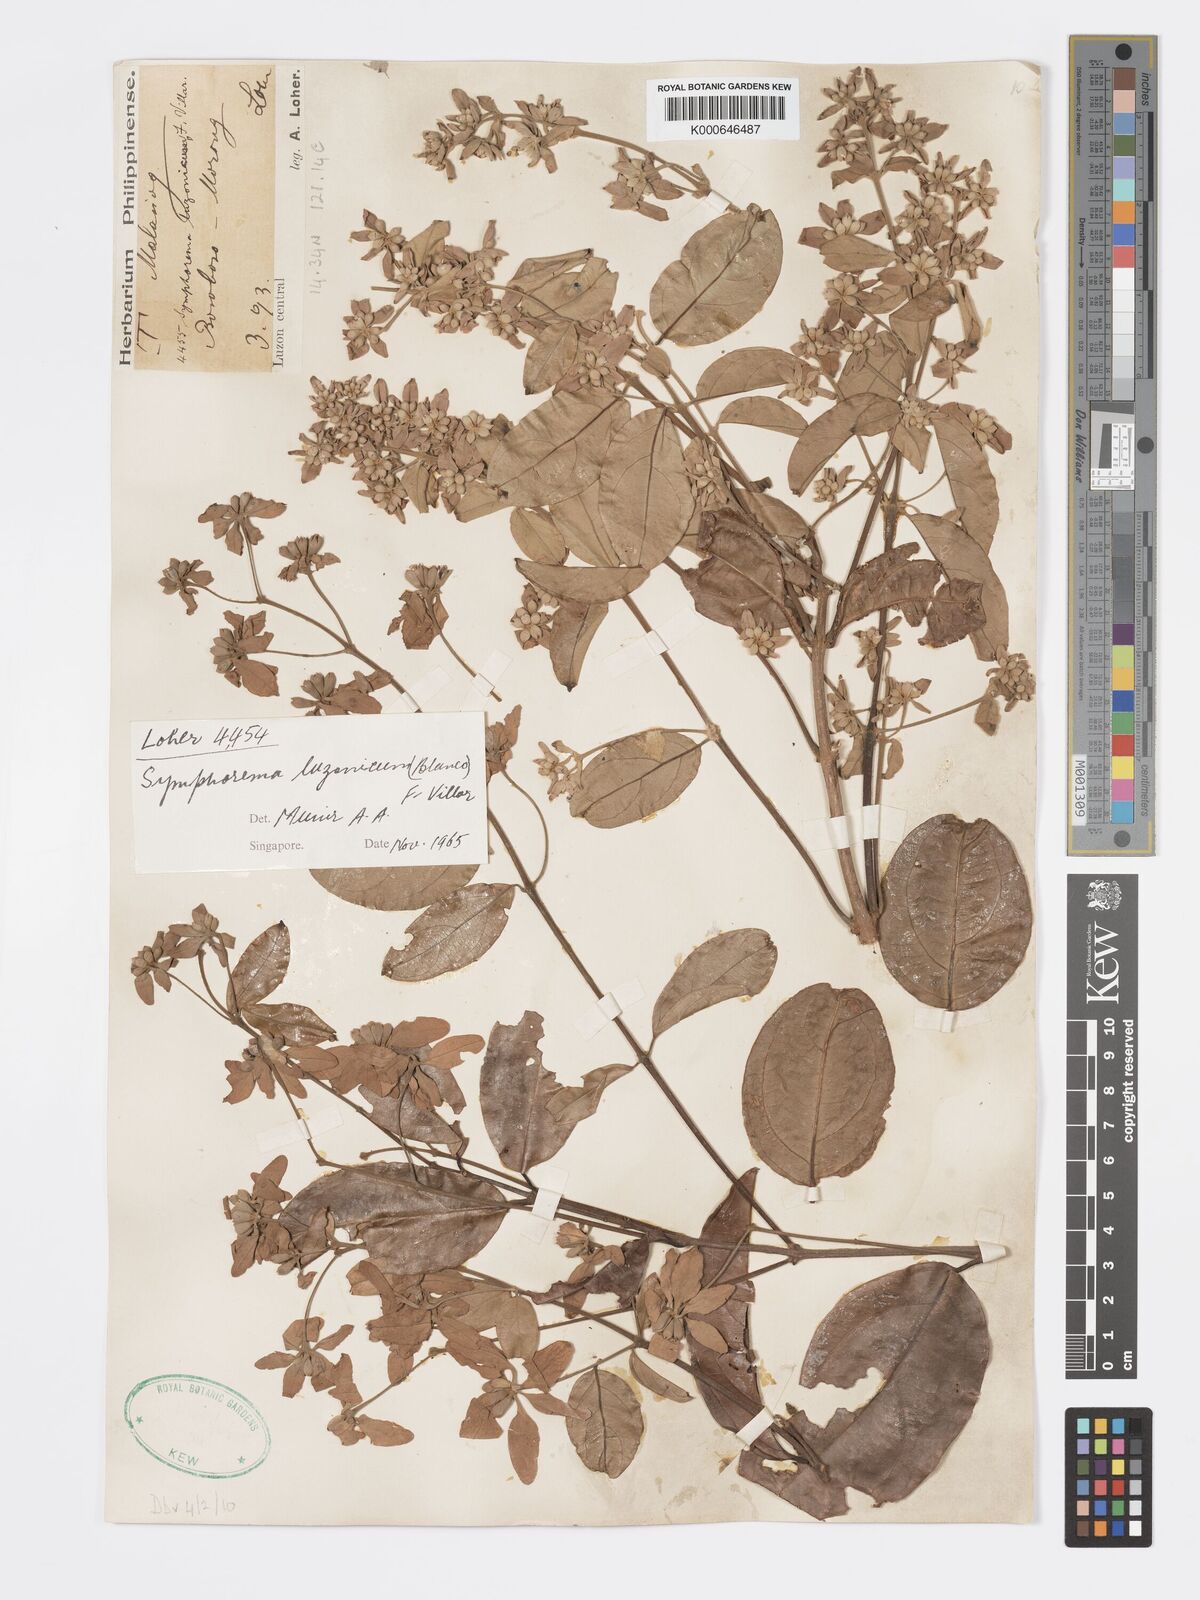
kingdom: Plantae
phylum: Tracheophyta
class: Magnoliopsida
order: Lamiales
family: Lamiaceae
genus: Symphorema
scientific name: Symphorema luzonicum
